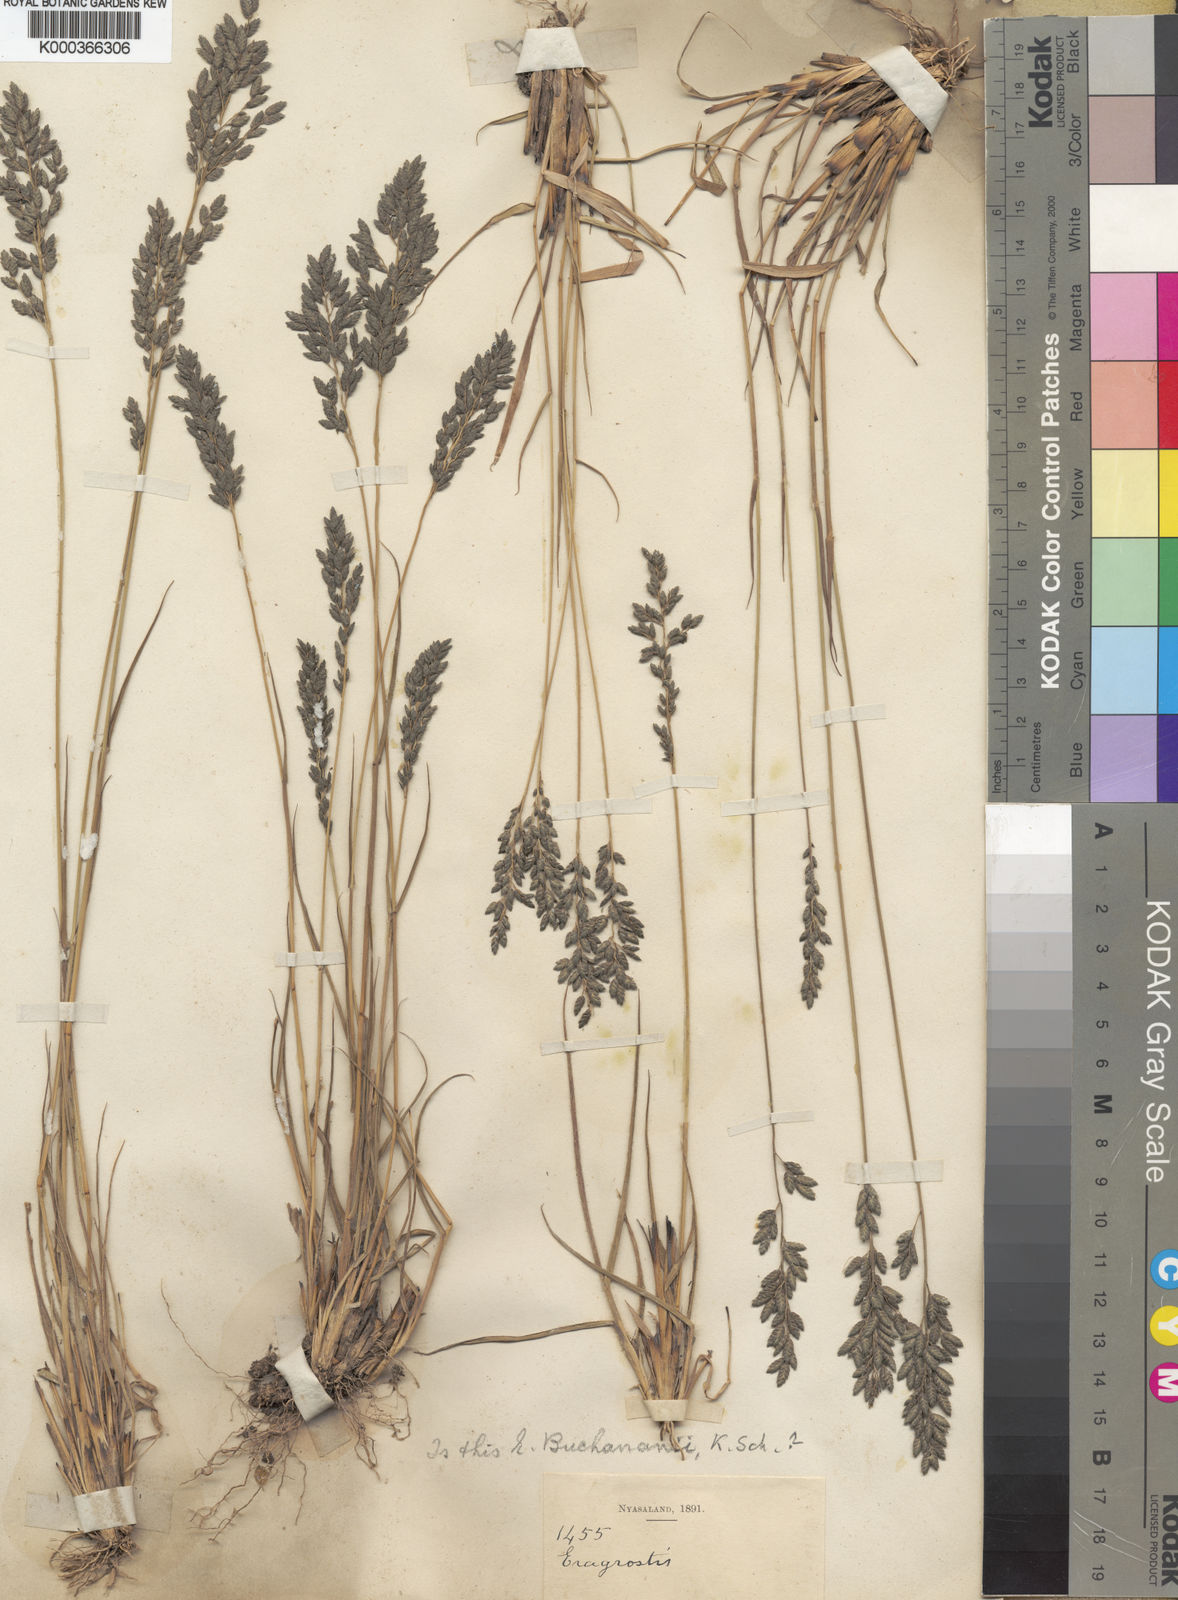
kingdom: Plantae
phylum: Tracheophyta
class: Liliopsida
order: Poales
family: Poaceae
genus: Eragrostis
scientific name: Eragrostis racemosa
